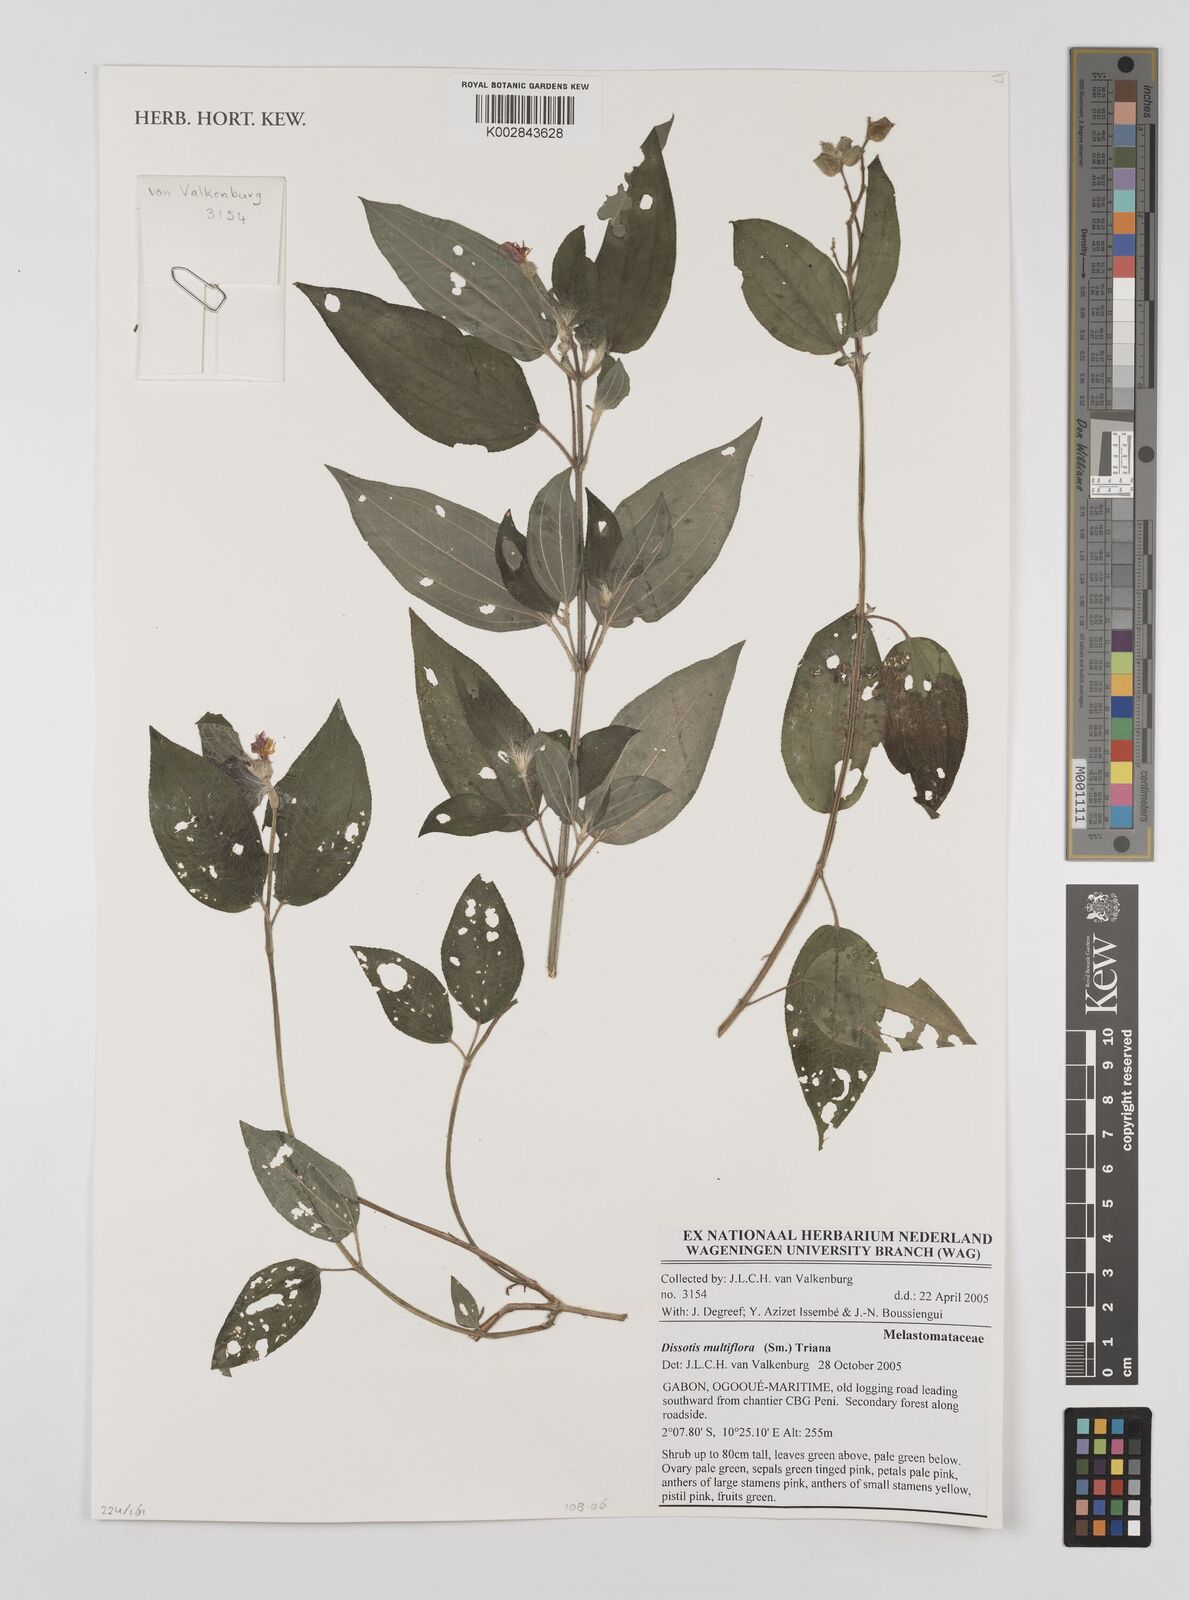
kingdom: Plantae
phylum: Tracheophyta
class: Magnoliopsida
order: Myrtales
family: Melastomataceae
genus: Dupineta
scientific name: Dupineta multiflora
